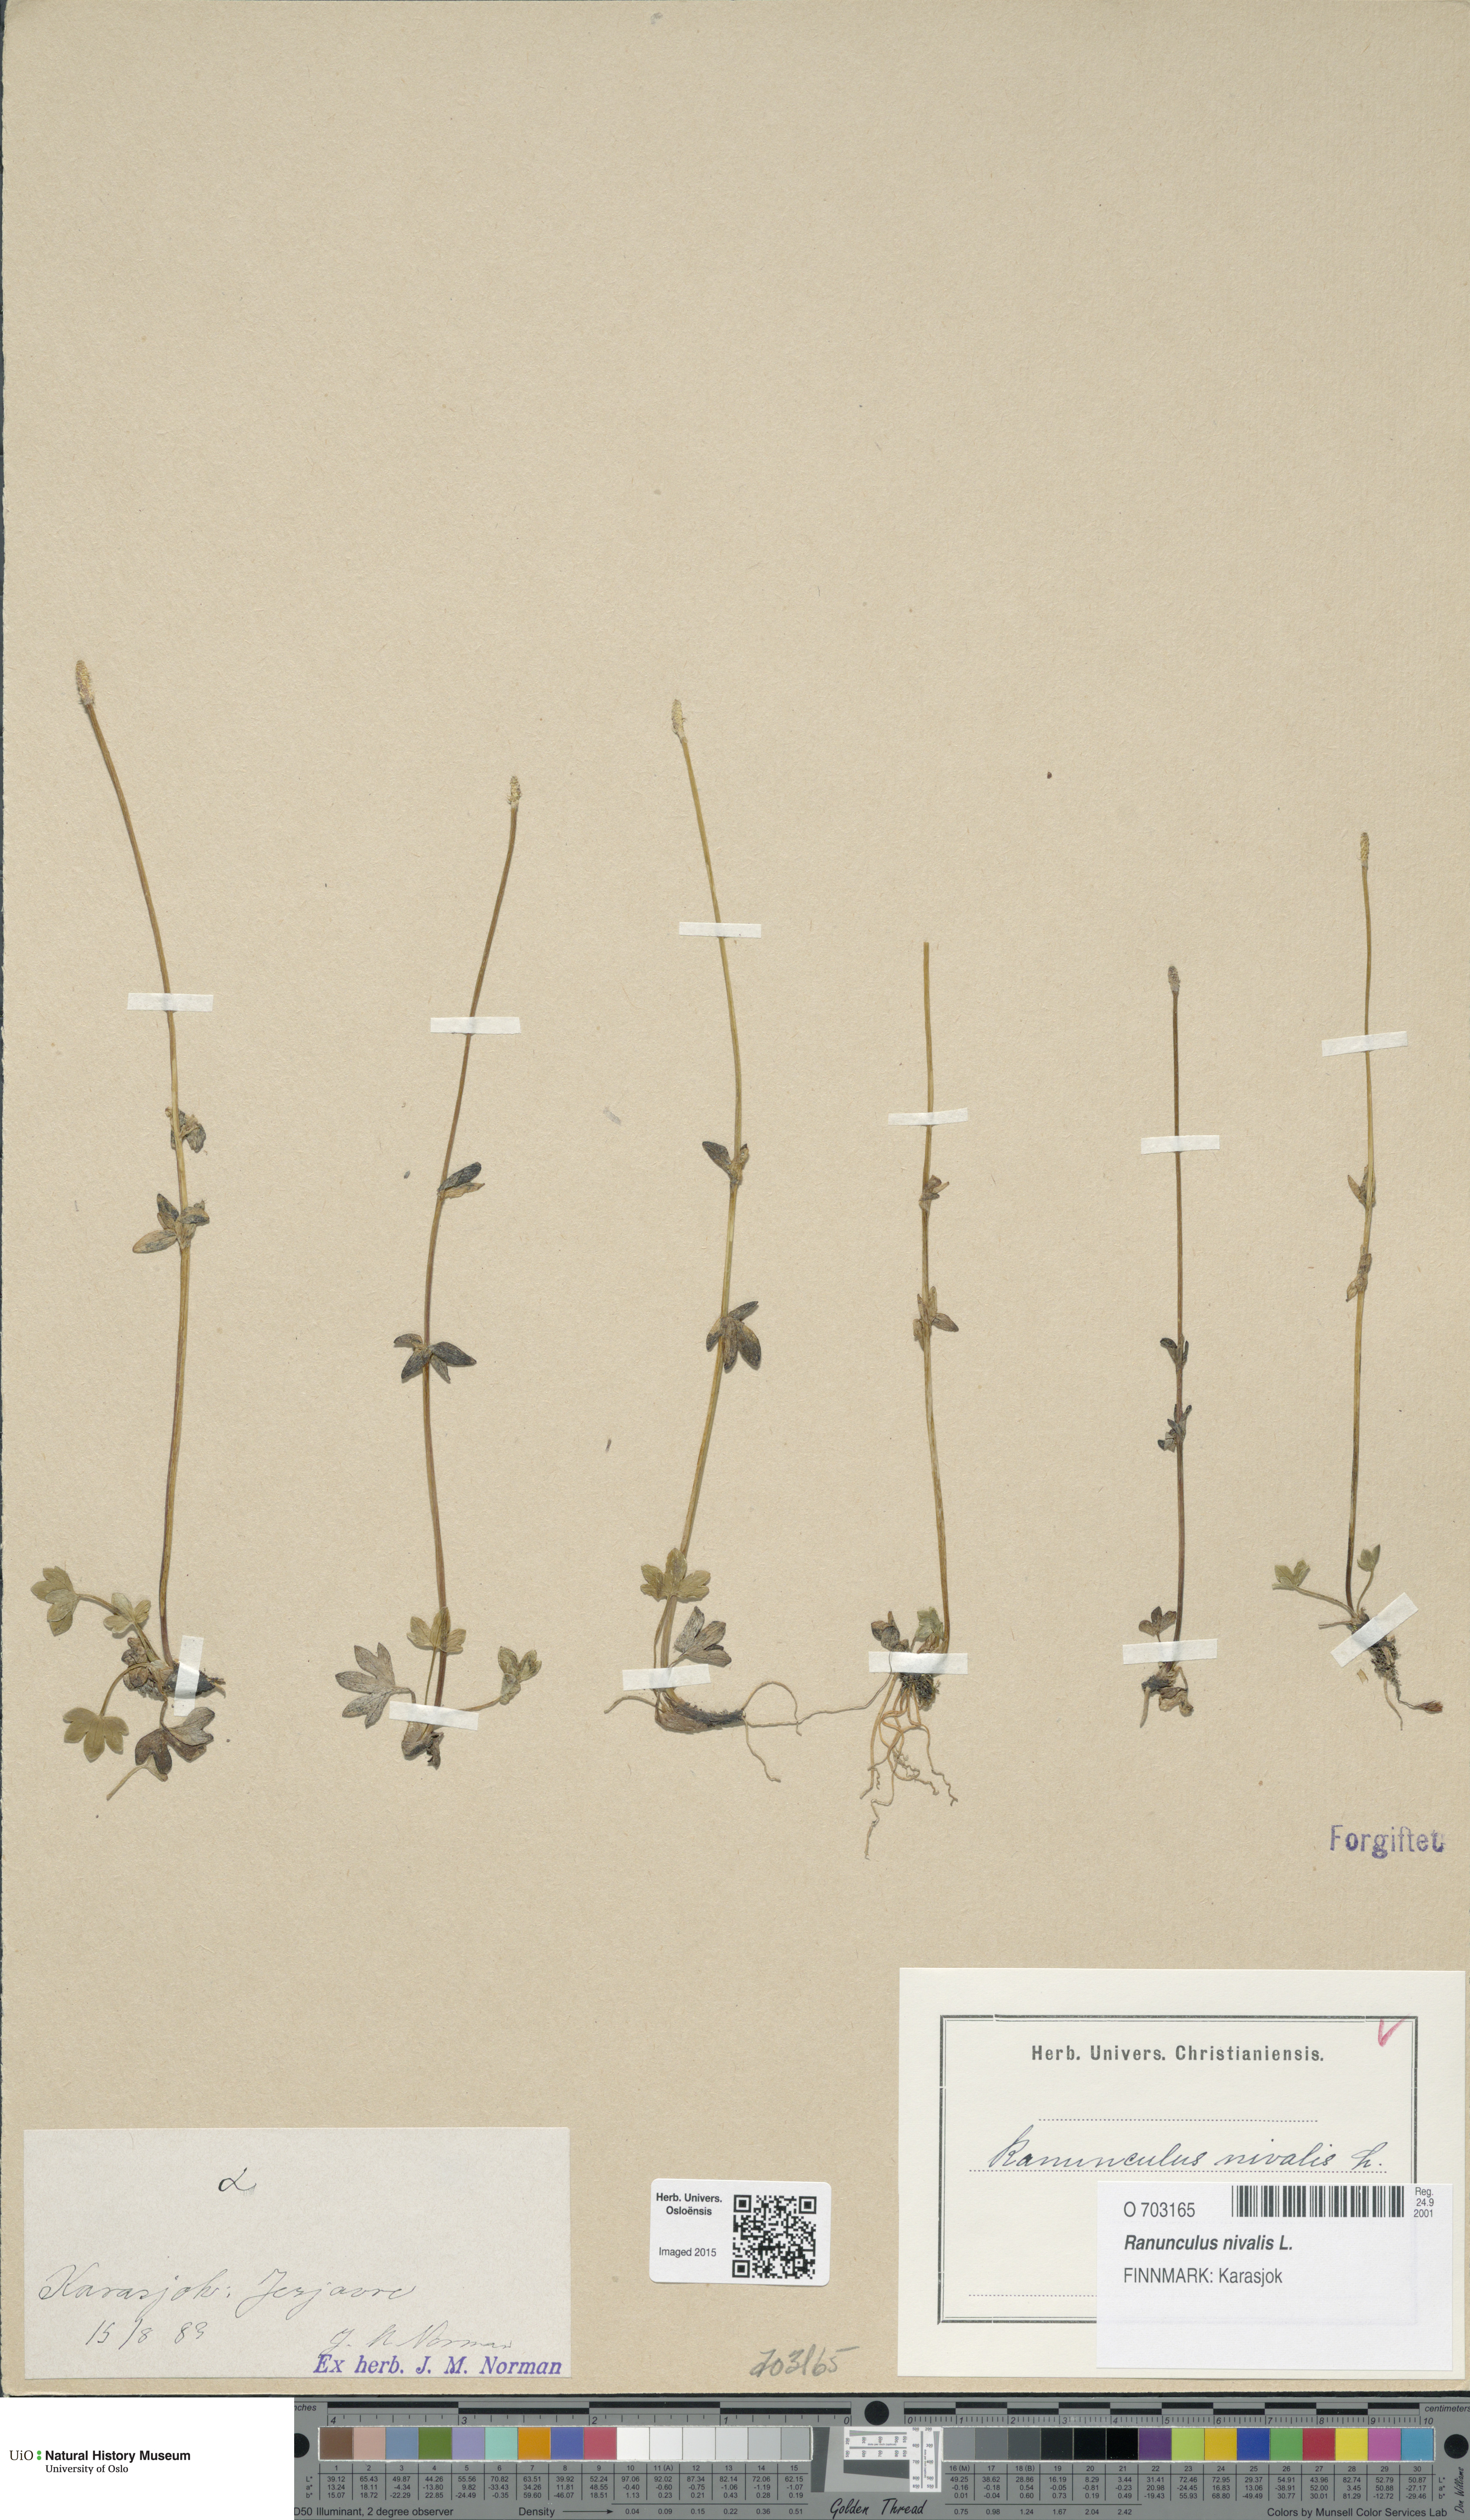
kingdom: Plantae
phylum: Tracheophyta
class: Magnoliopsida
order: Ranunculales
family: Ranunculaceae
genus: Ranunculus
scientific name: Ranunculus nivalis
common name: Snow buttercup
